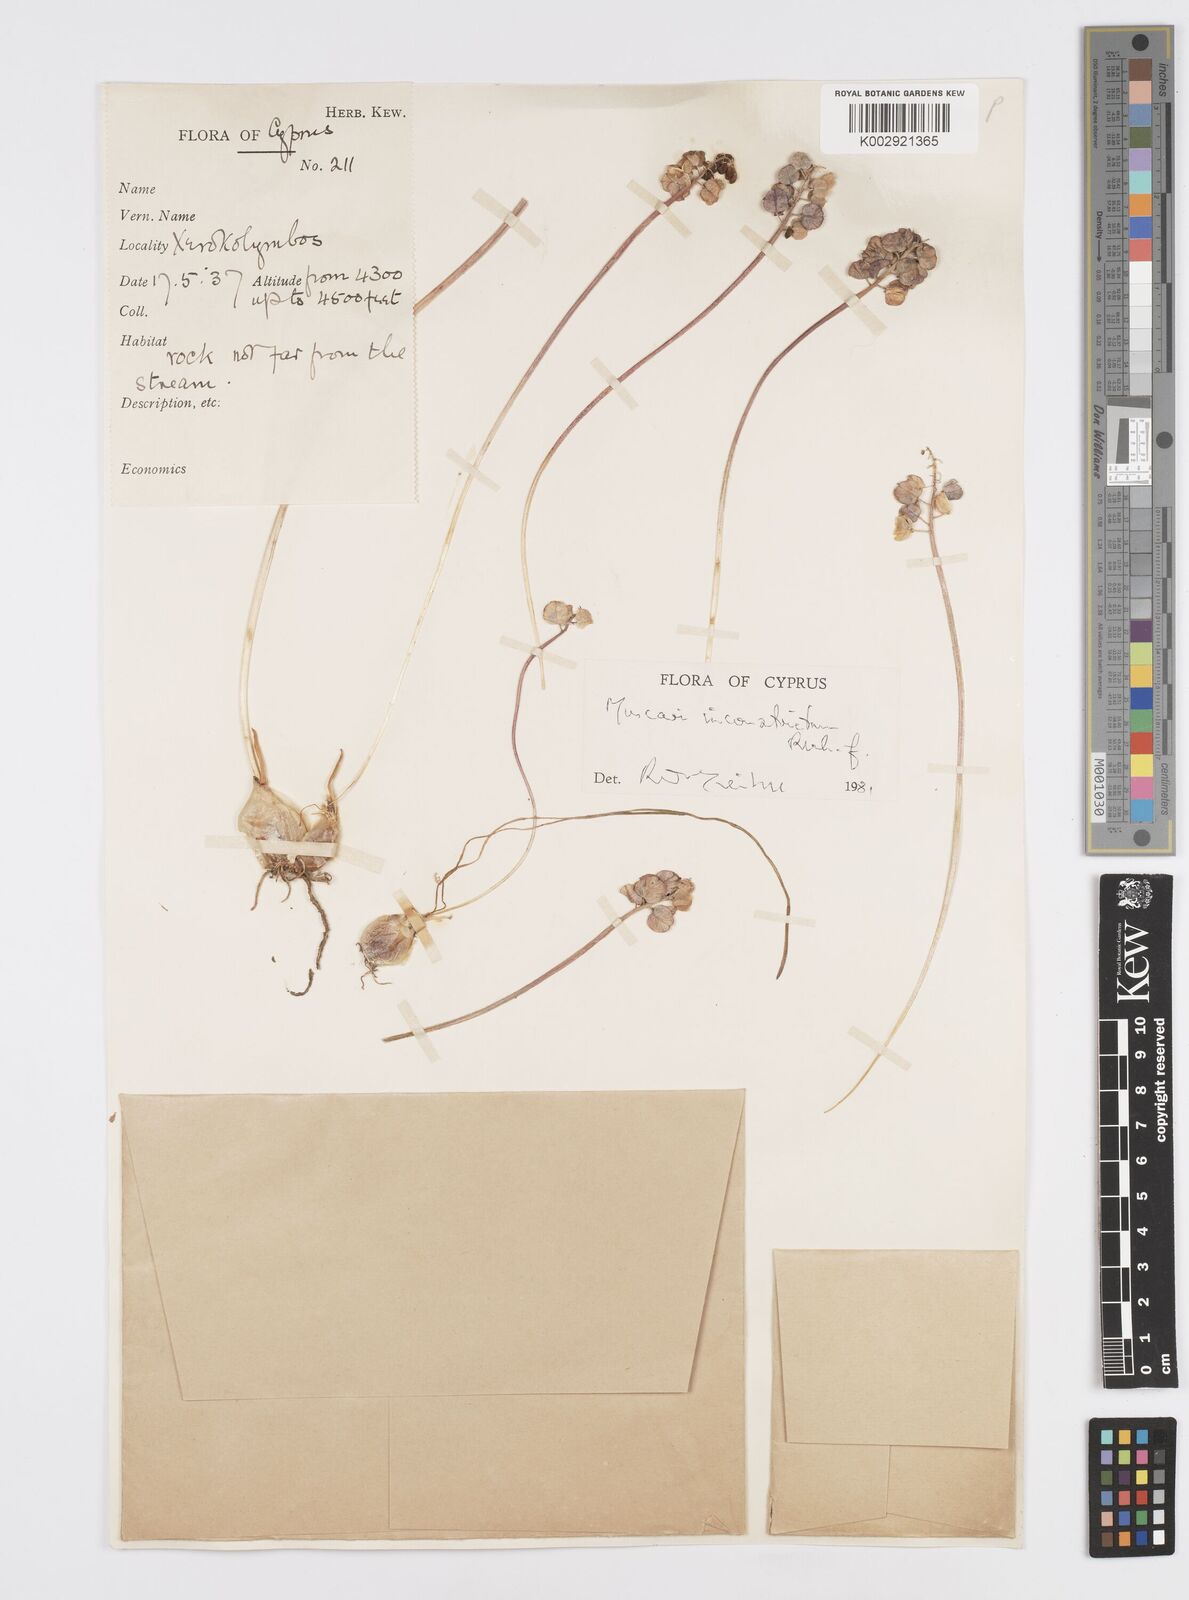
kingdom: Plantae
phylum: Tracheophyta
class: Liliopsida
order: Asparagales
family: Asparagaceae
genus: Muscari
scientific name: Muscari
